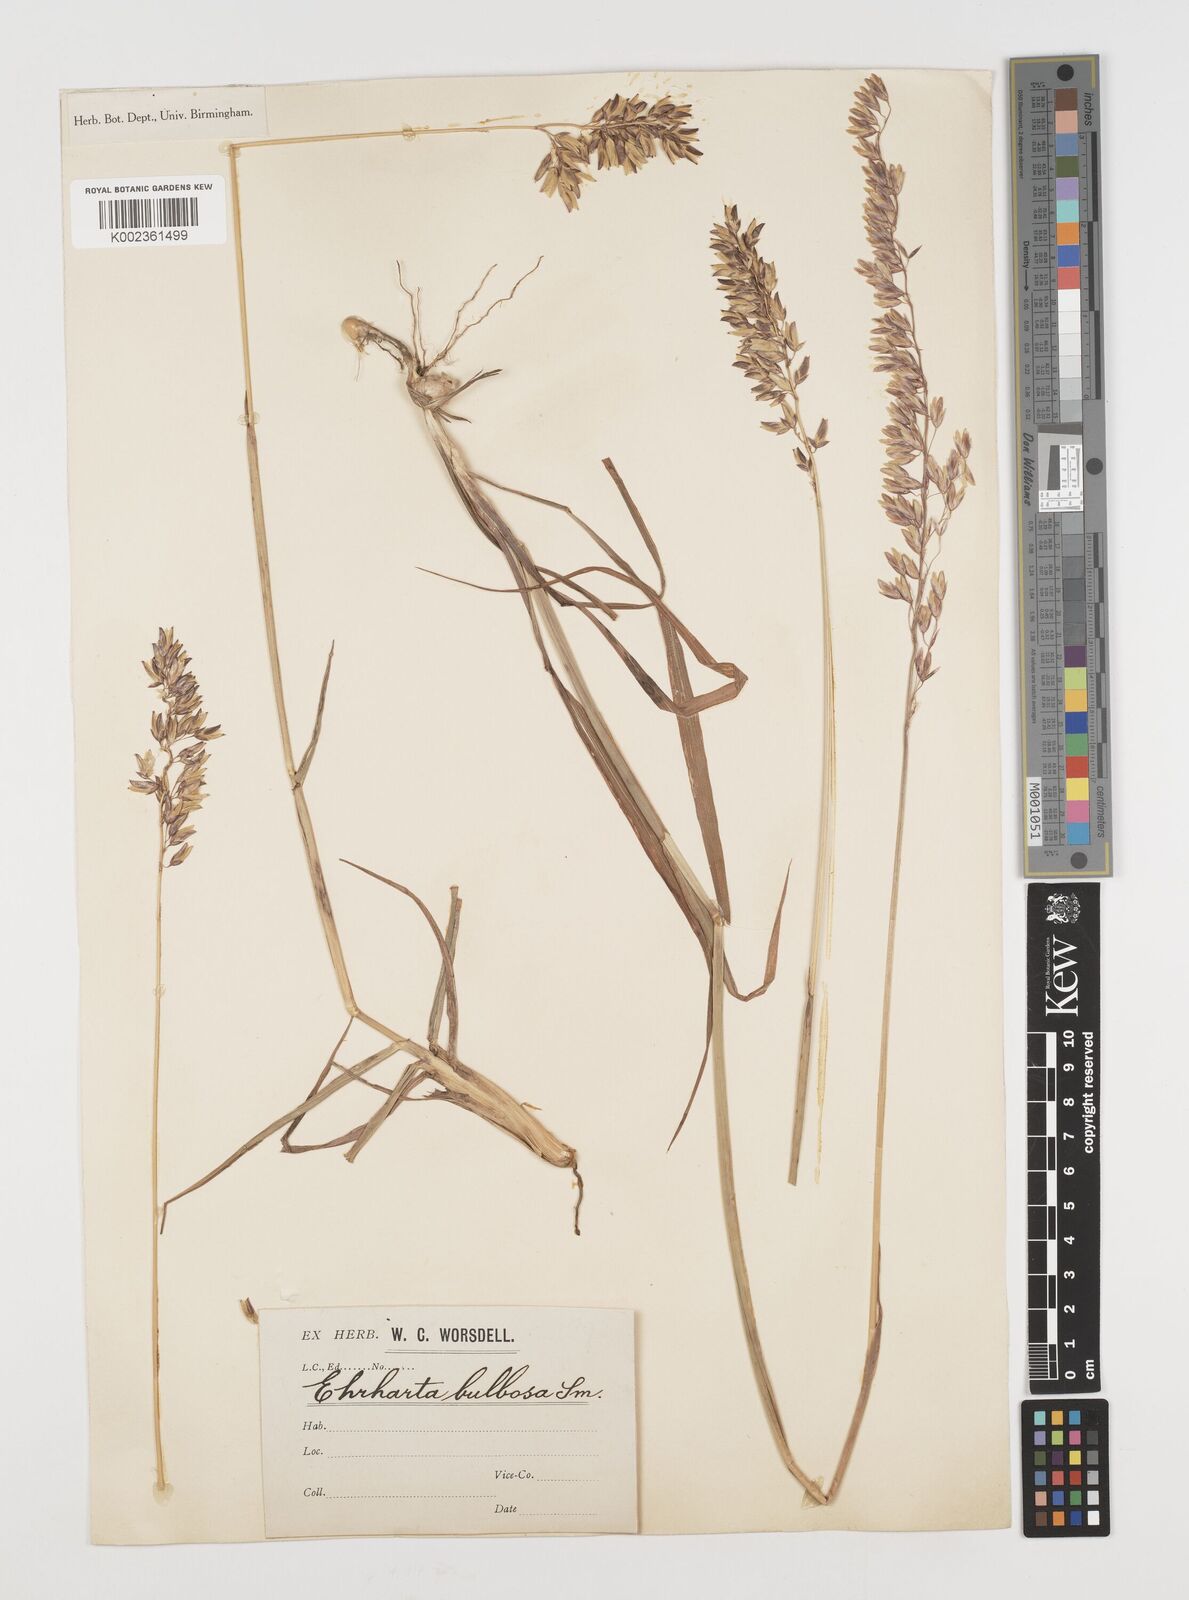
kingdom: Plantae
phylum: Tracheophyta
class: Liliopsida
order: Poales
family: Poaceae
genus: Ehrharta
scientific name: Ehrharta bulbosa
